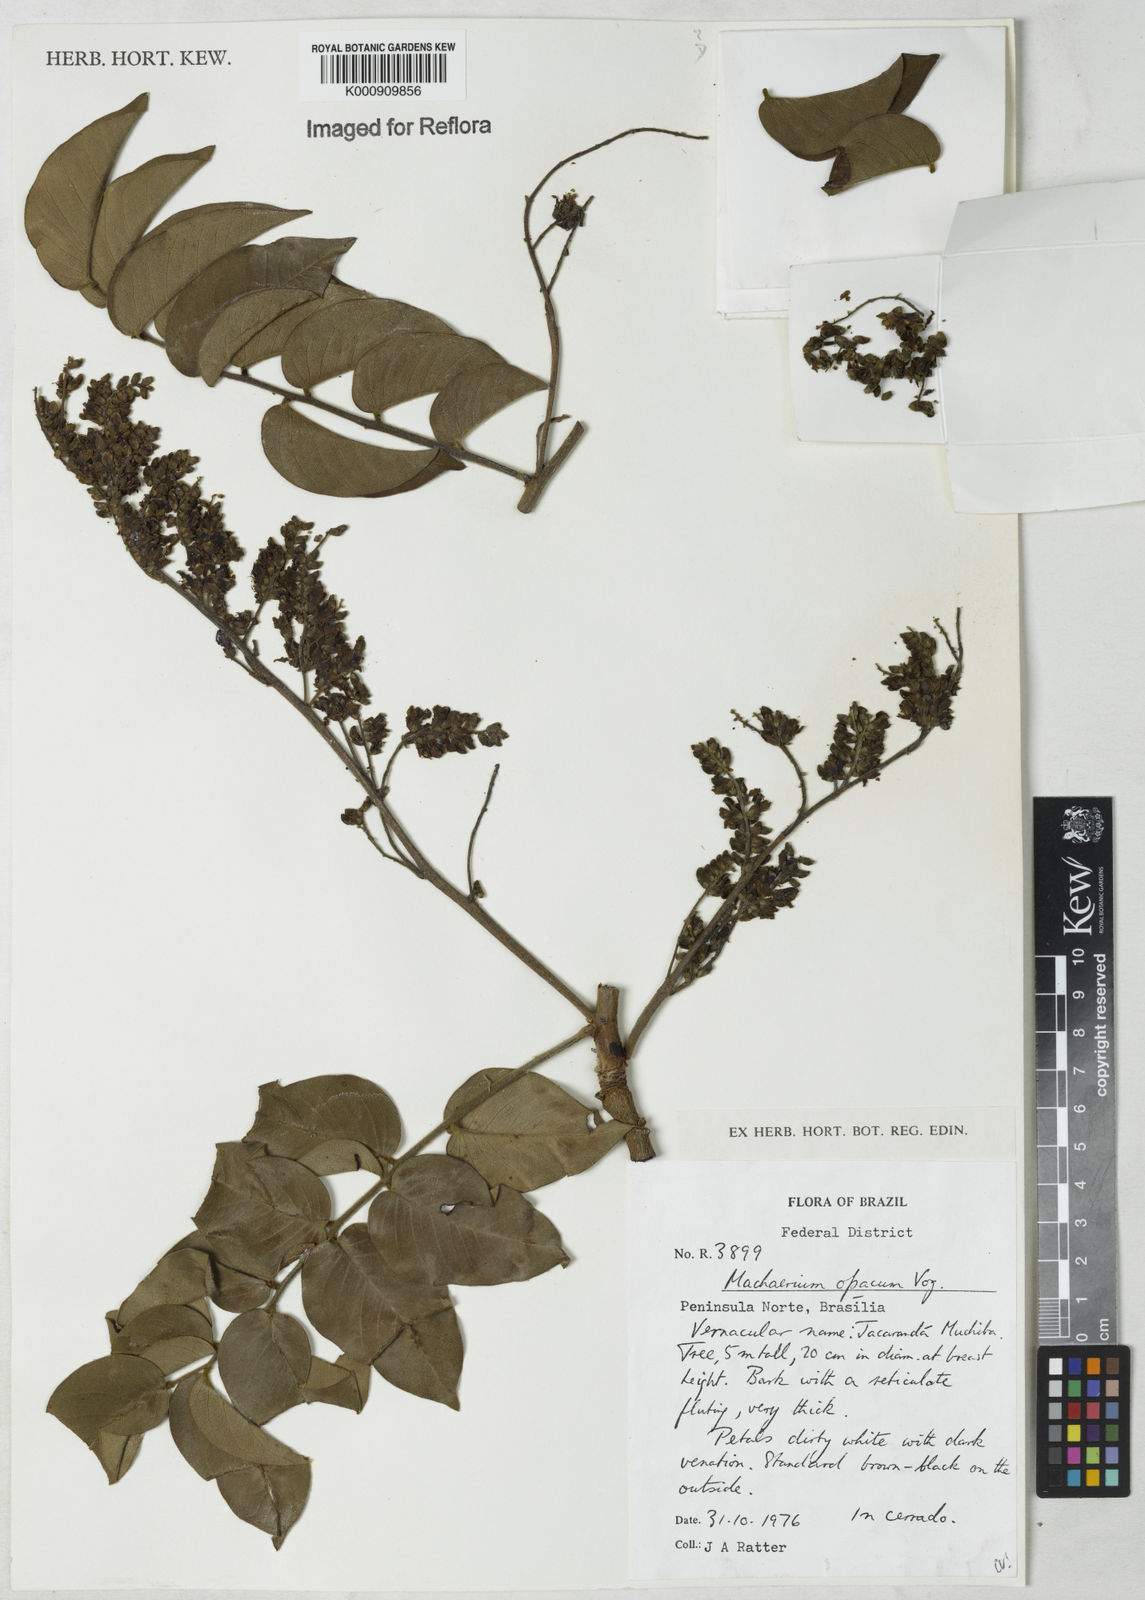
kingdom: Plantae
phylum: Tracheophyta
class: Magnoliopsida
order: Fabales
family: Fabaceae
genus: Machaerium
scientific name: Machaerium opacum
